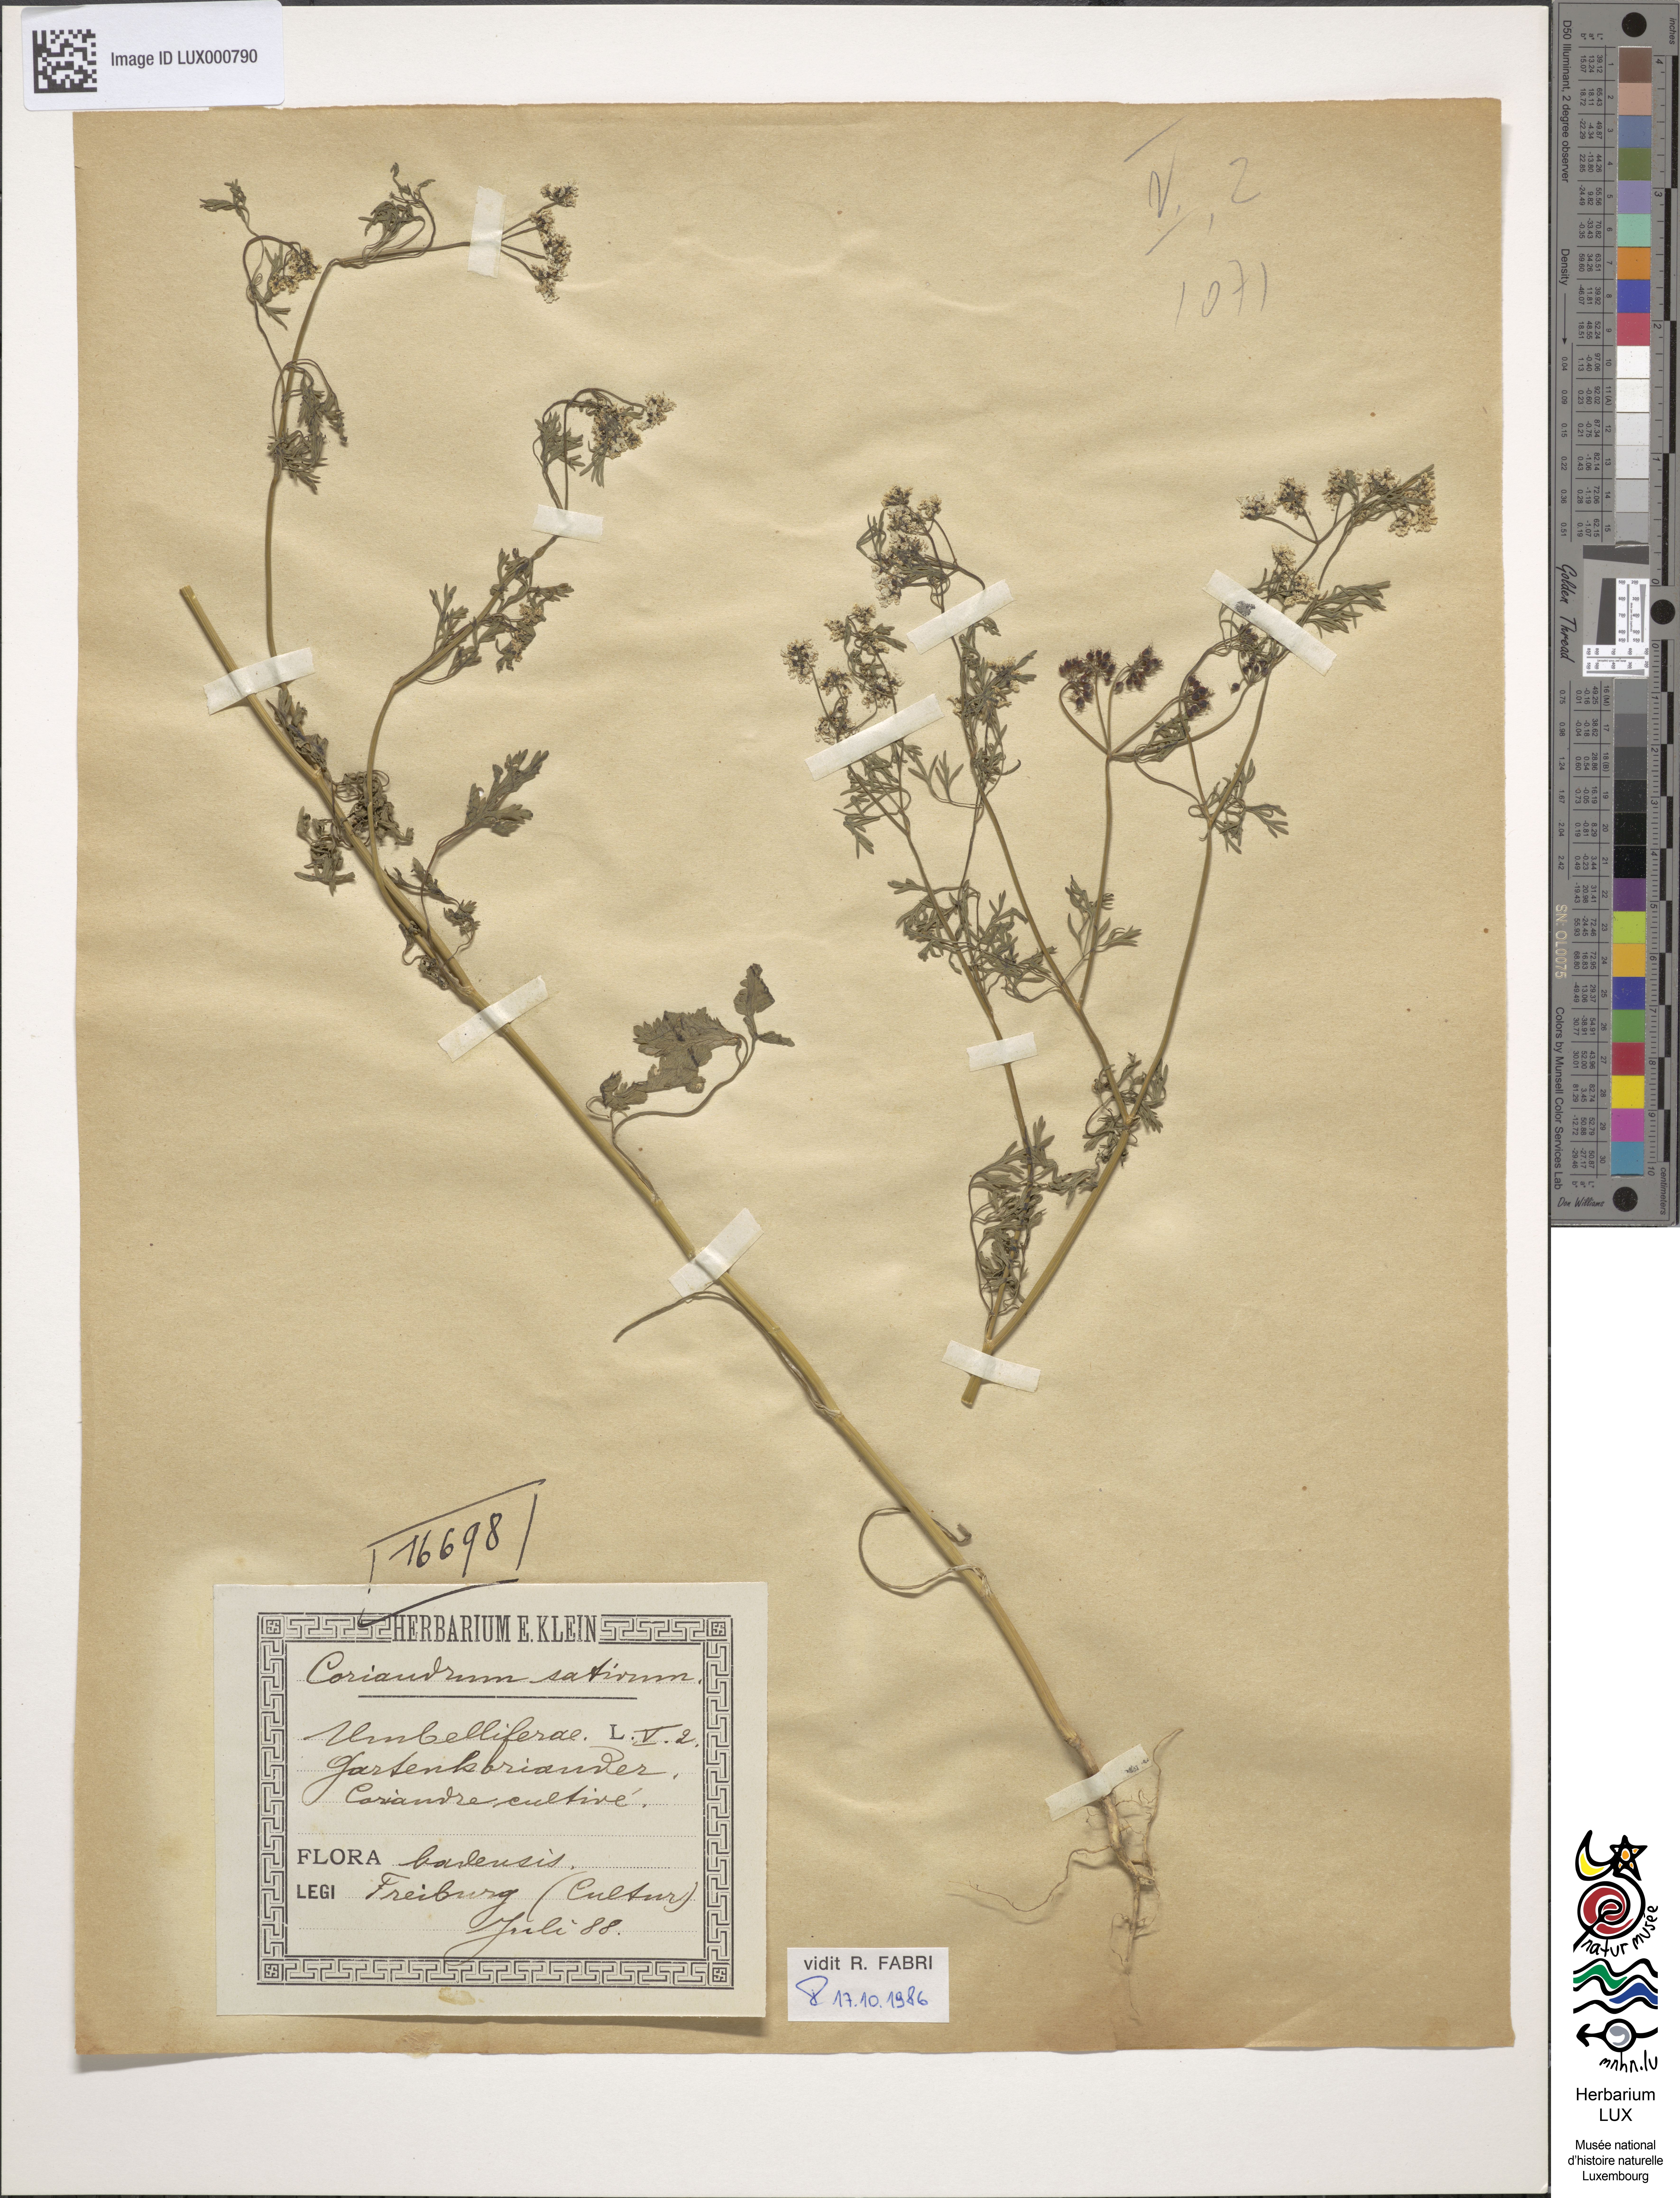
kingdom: Plantae
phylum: Tracheophyta
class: Magnoliopsida
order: Apiales
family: Apiaceae
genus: Coriandrum
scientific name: Coriandrum sativum
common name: Coriander
